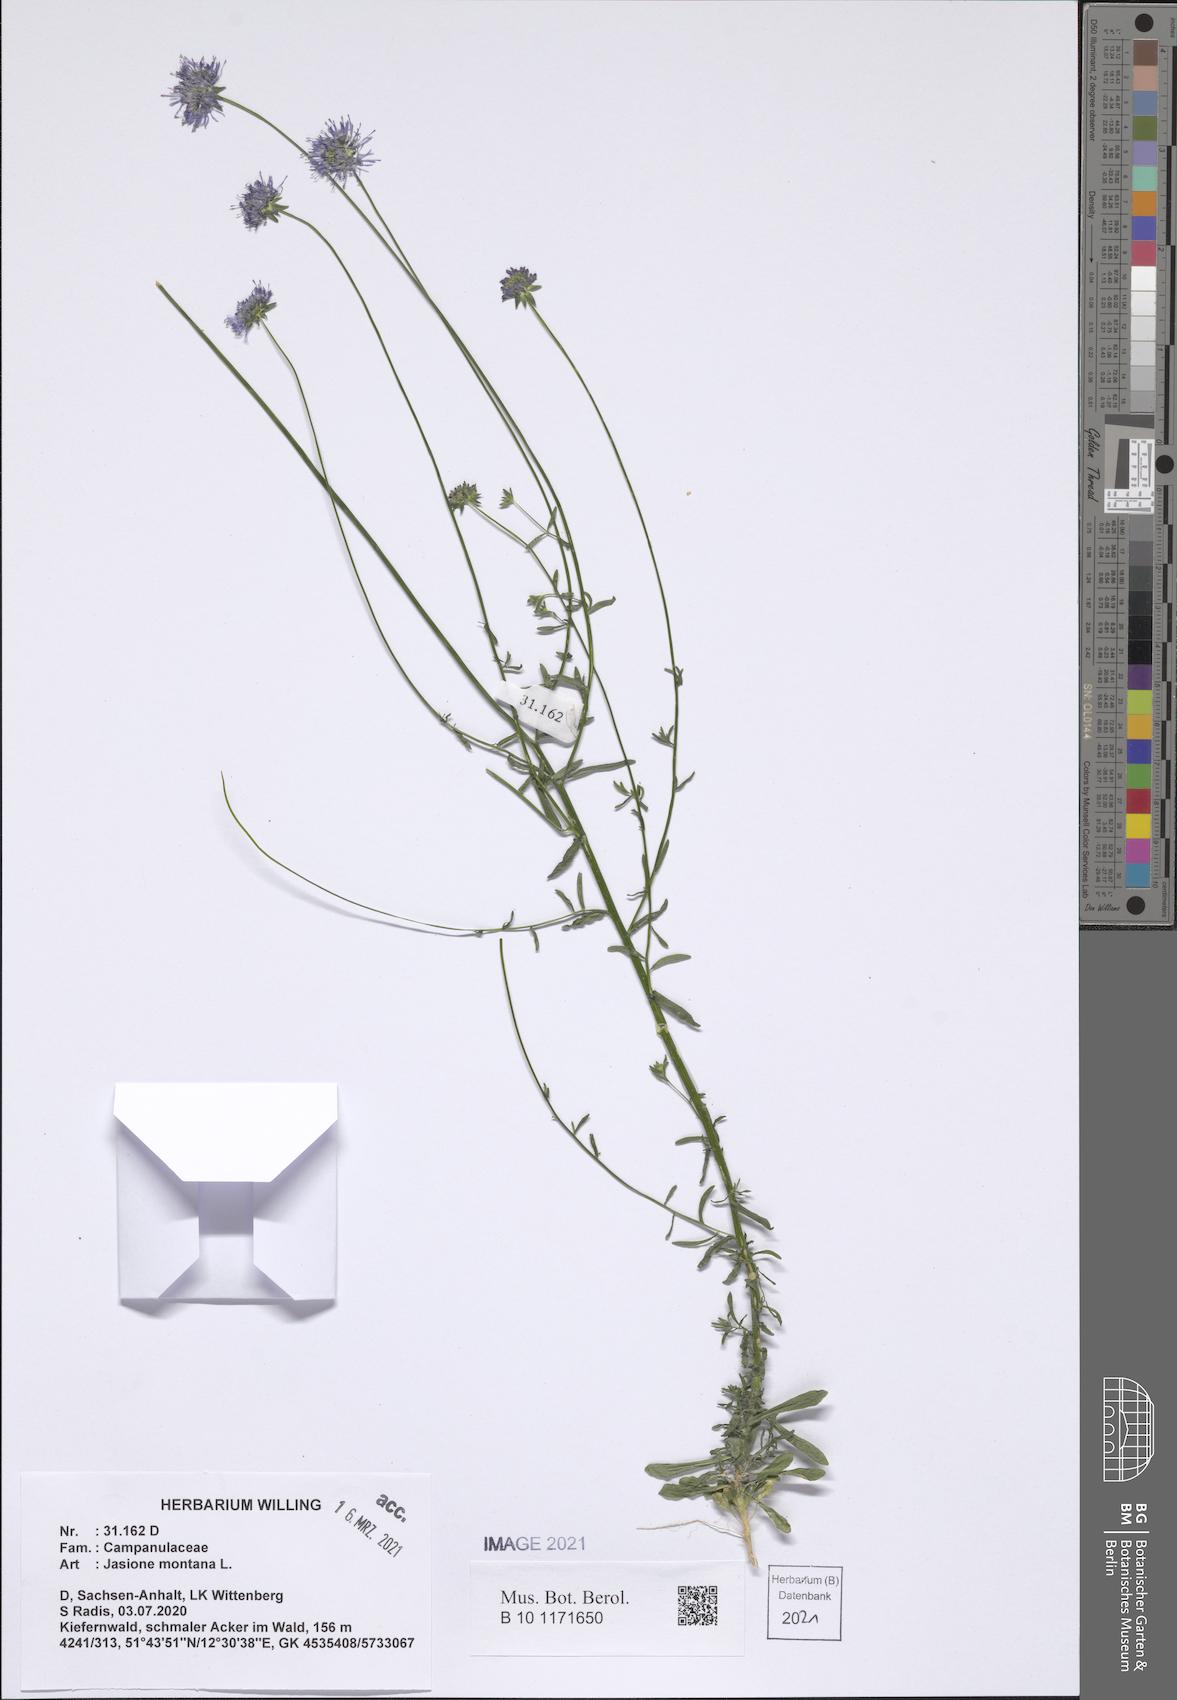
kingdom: Plantae
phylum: Tracheophyta
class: Magnoliopsida
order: Asterales
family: Campanulaceae
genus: Jasione
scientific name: Jasione montana
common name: Sheep's-bit
